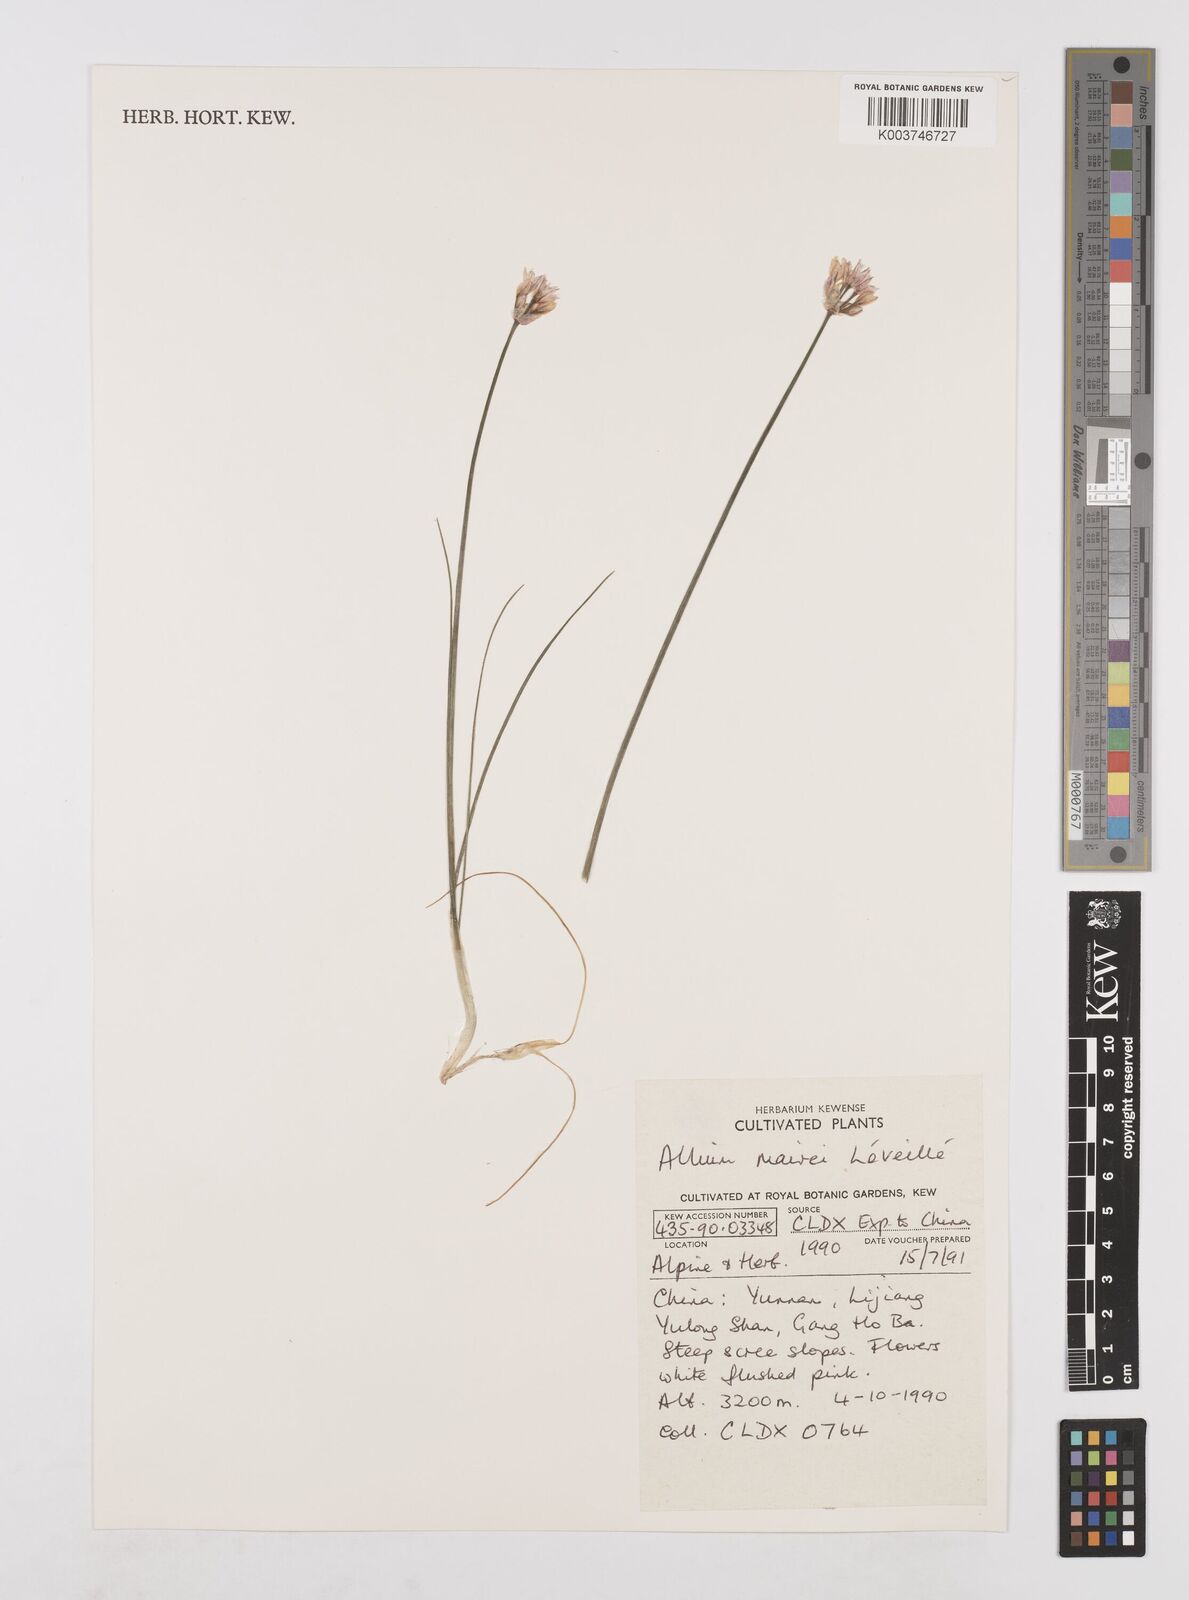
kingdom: Plantae
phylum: Tracheophyta
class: Liliopsida
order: Asparagales
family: Amaryllidaceae
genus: Allium
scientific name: Allium mairei
